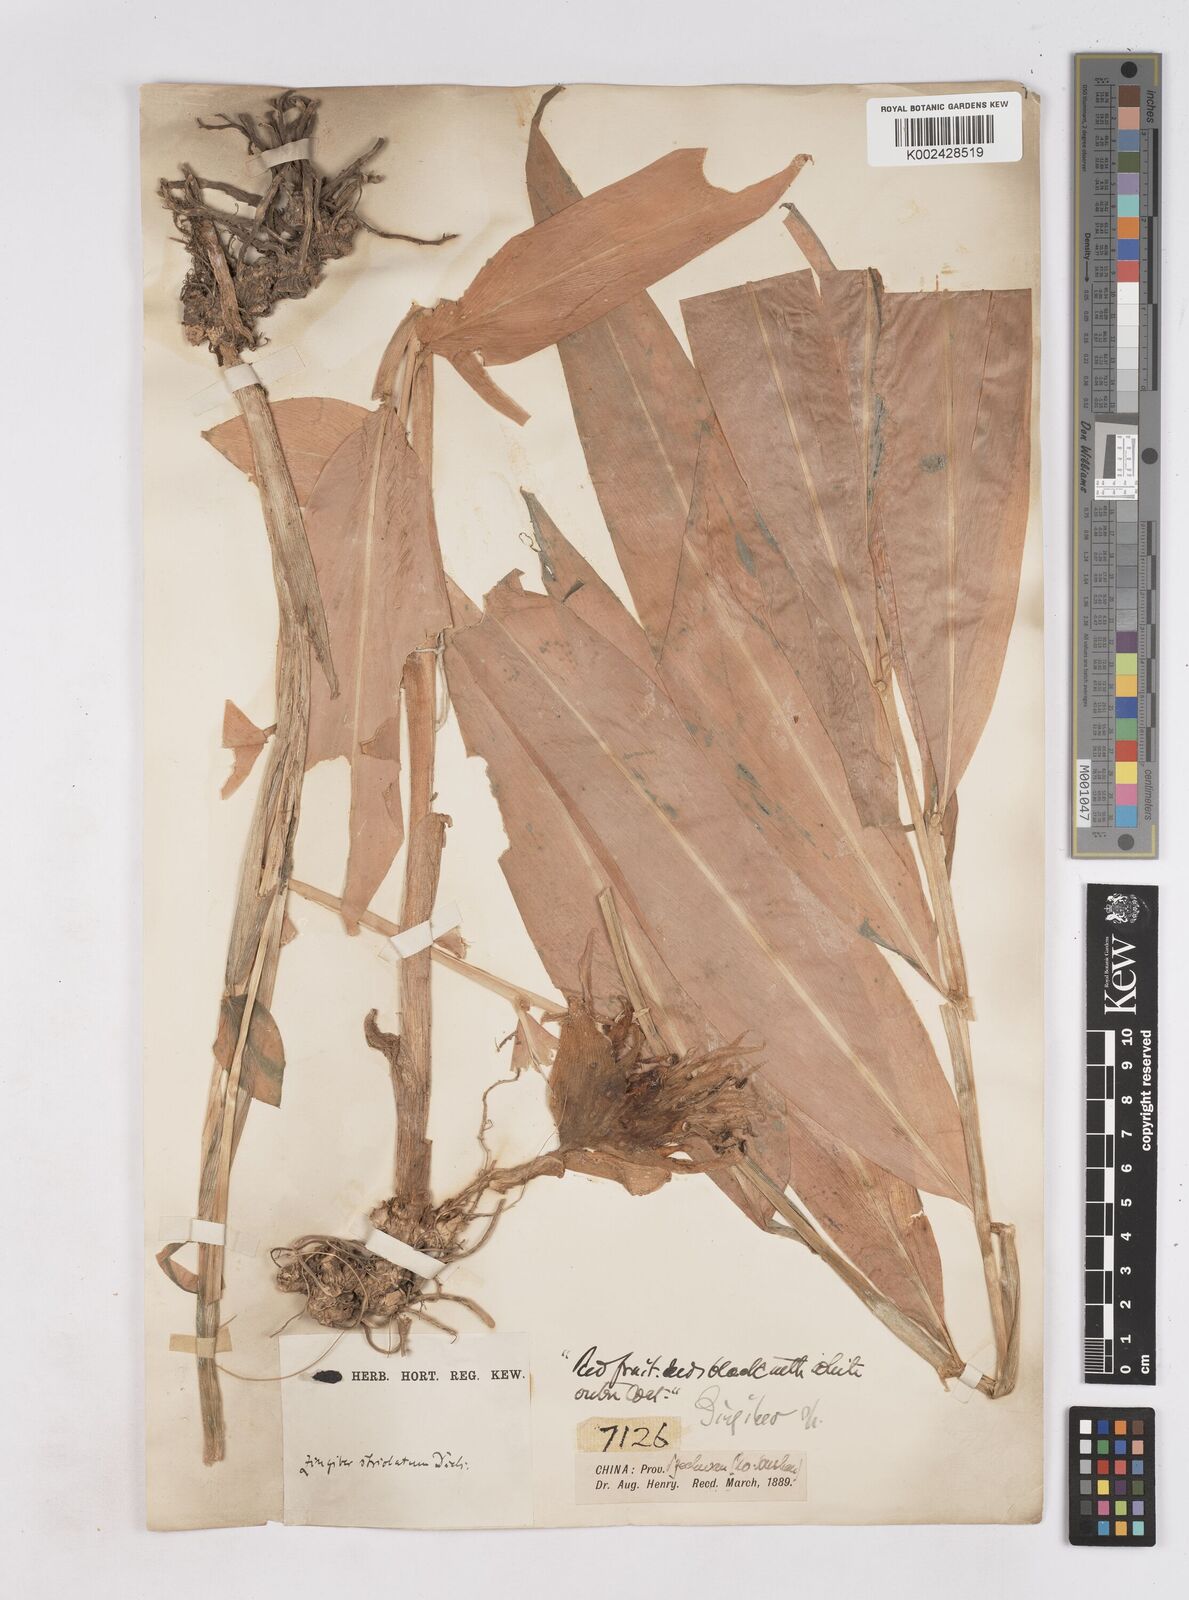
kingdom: Plantae
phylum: Tracheophyta
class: Liliopsida
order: Zingiberales
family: Zingiberaceae
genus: Zingiber
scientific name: Zingiber striolatum
